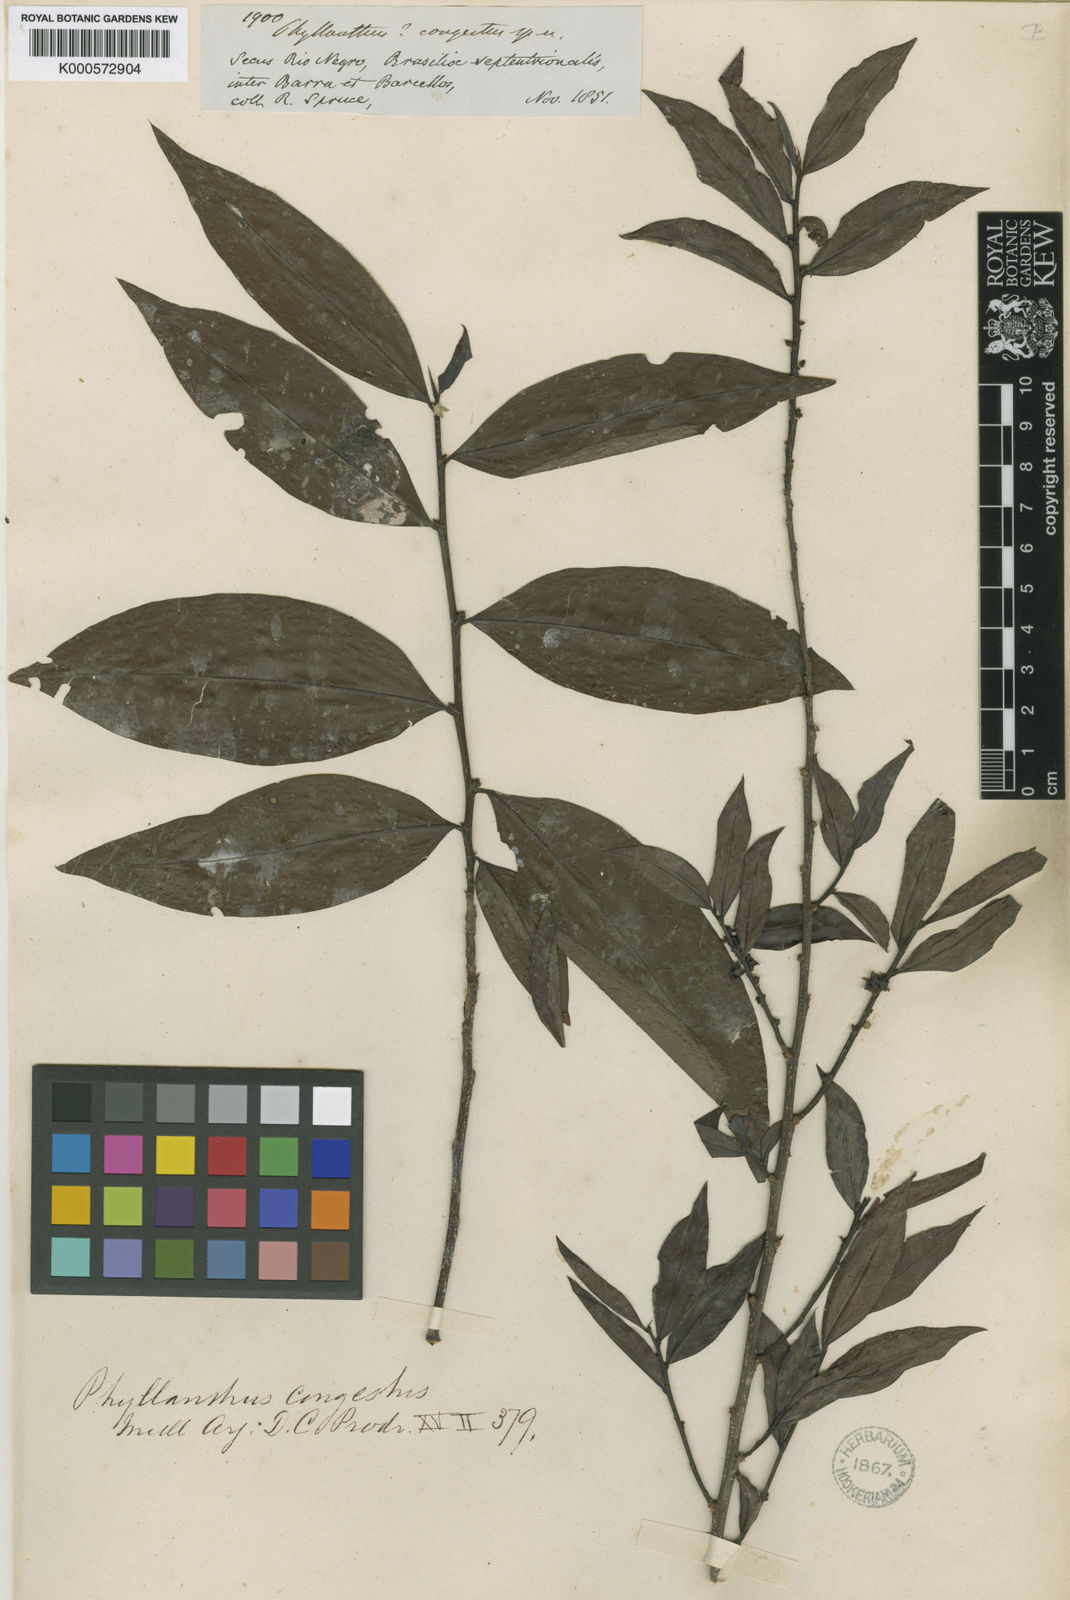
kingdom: Plantae
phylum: Tracheophyta
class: Magnoliopsida
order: Malpighiales
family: Phyllanthaceae
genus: Jablonskia
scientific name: Jablonskia congesta
